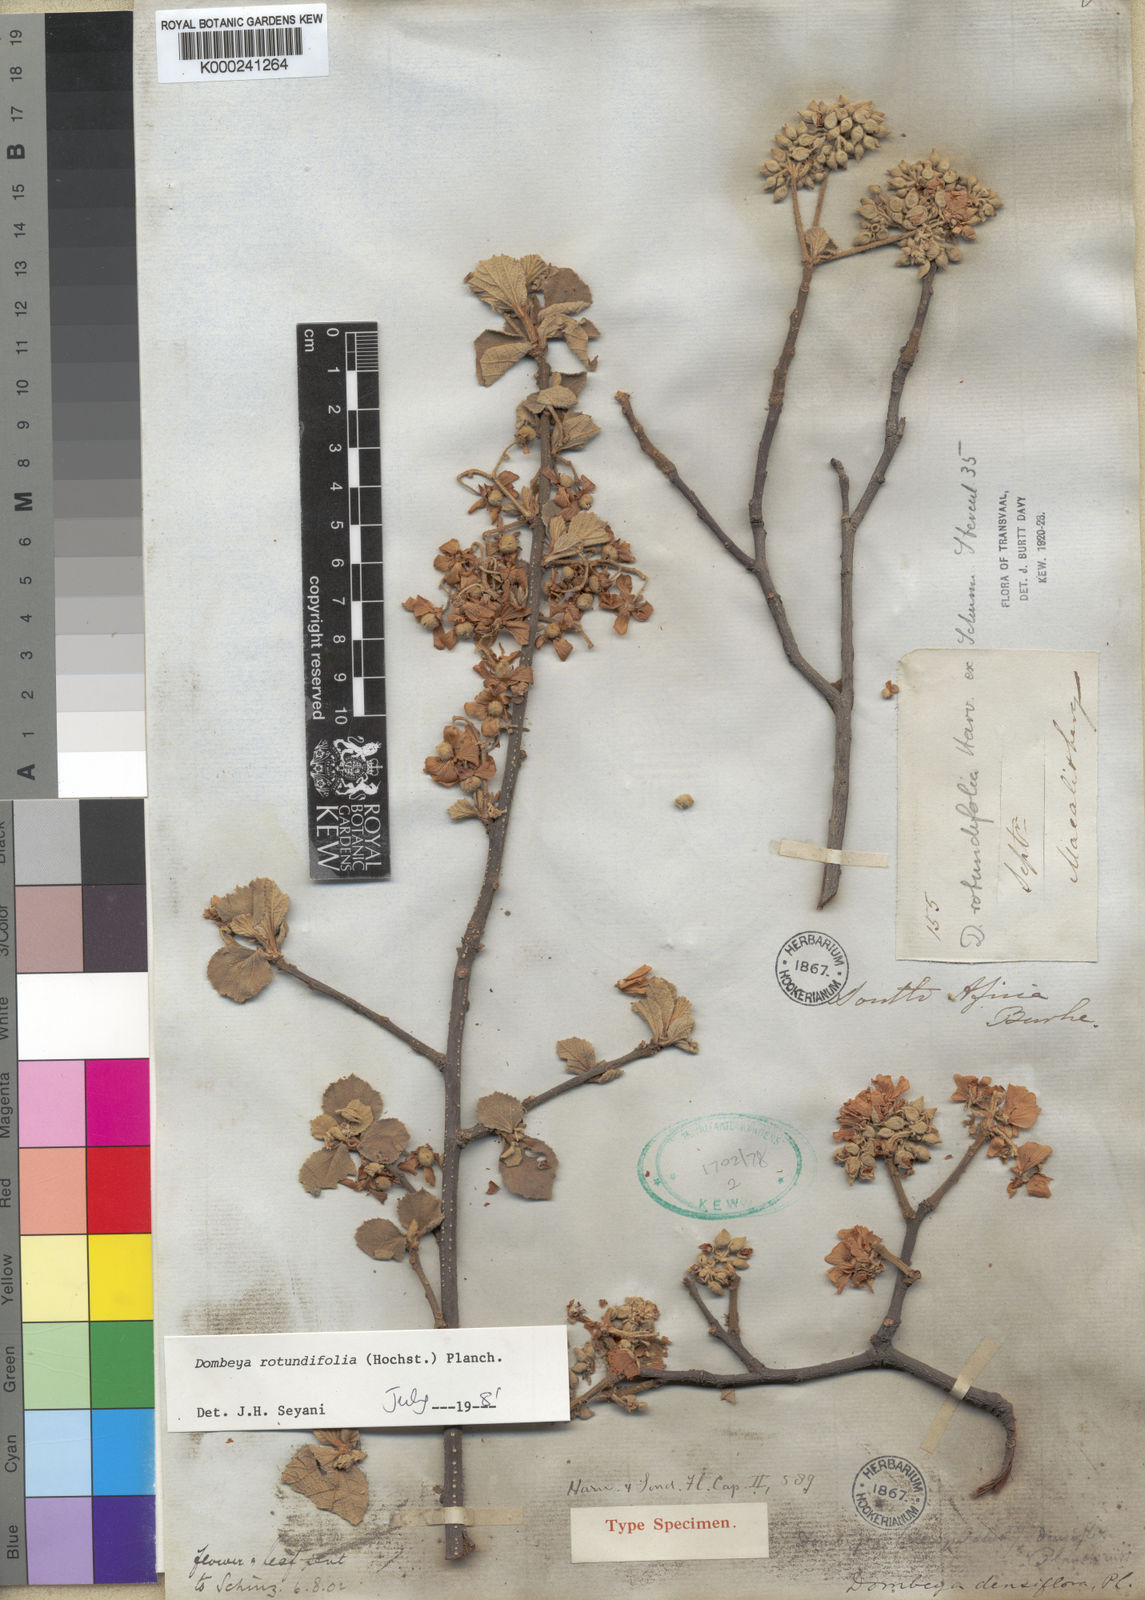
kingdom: Plantae
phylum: Tracheophyta
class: Magnoliopsida
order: Malvales
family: Malvaceae
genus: Dombeya
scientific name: Dombeya rotundifolia
